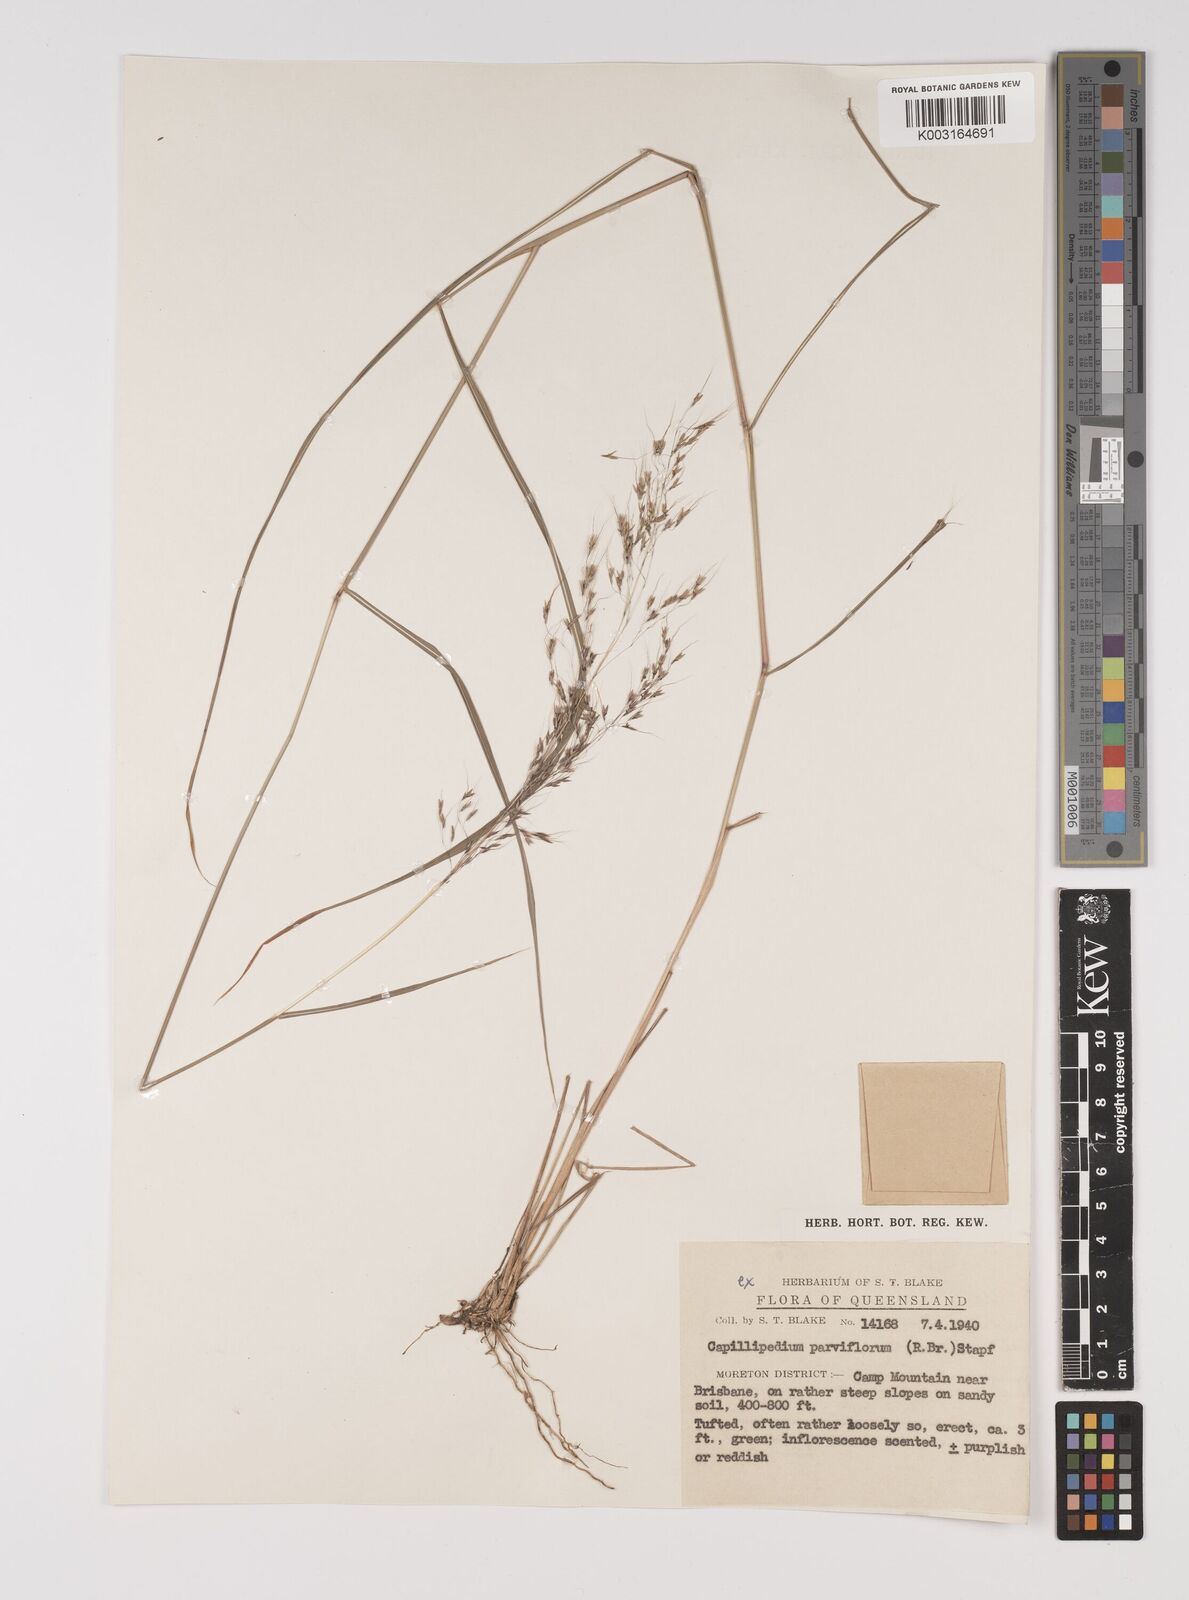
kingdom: Plantae
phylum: Tracheophyta
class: Liliopsida
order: Poales
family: Poaceae
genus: Capillipedium
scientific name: Capillipedium parviflorum
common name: Golden-beard
